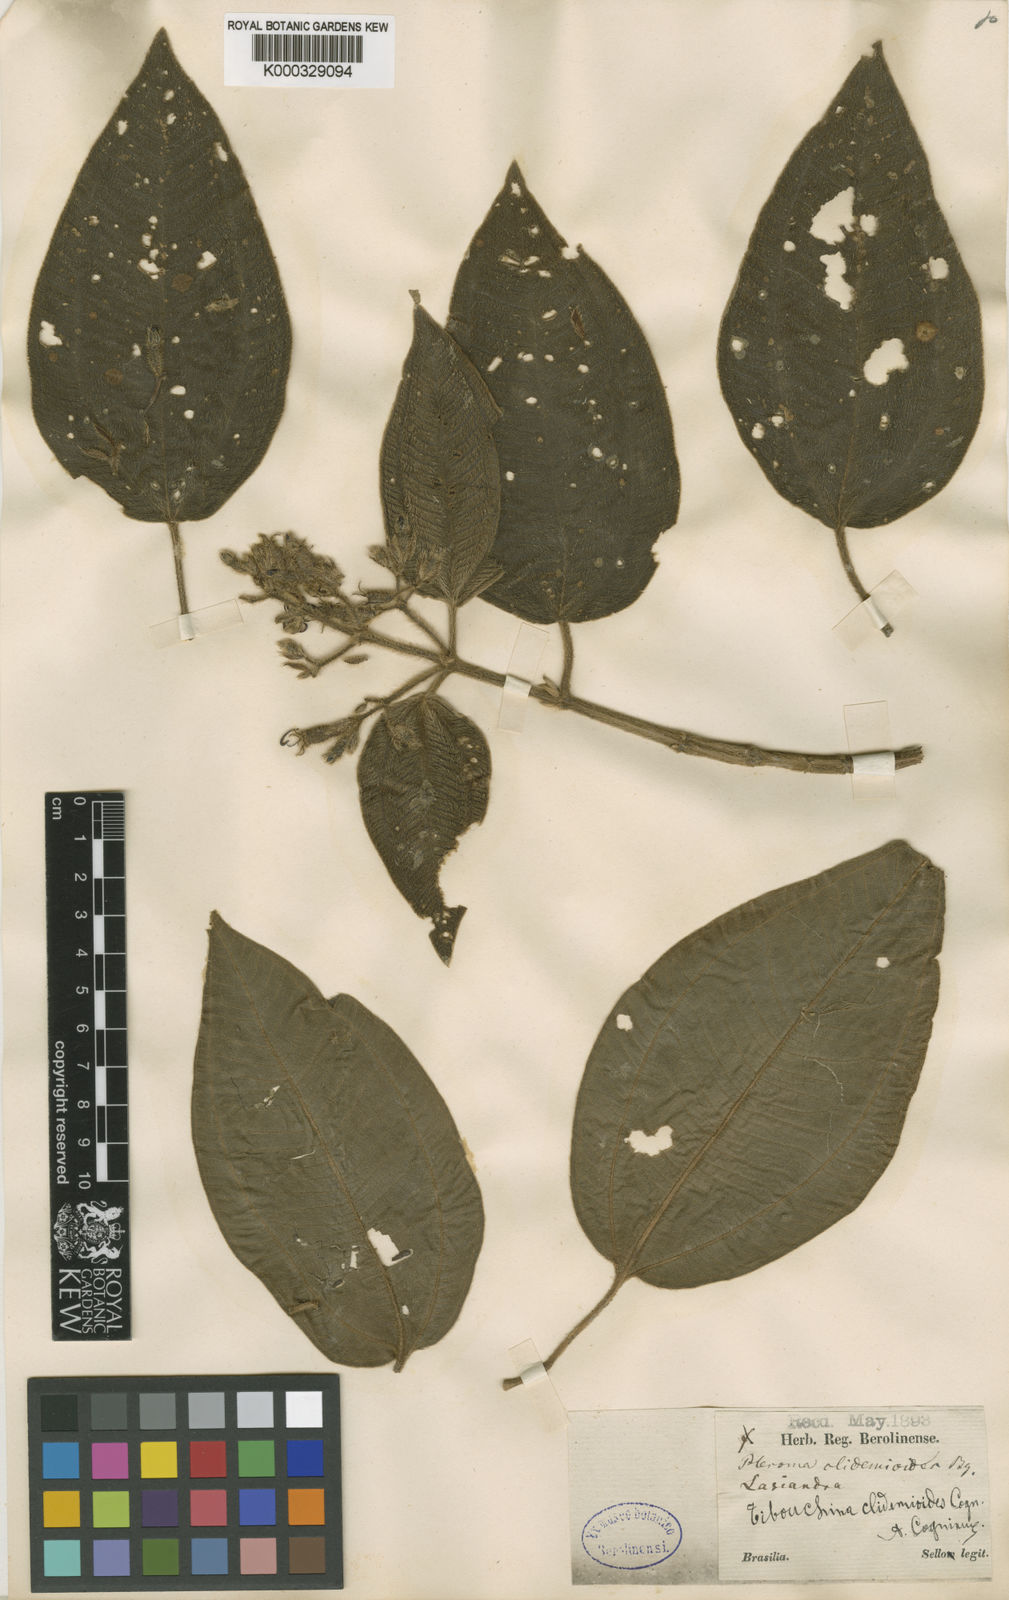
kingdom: Plantae
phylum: Tracheophyta
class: Magnoliopsida
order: Myrtales
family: Melastomataceae
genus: Pleroma
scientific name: Pleroma clidemoides
